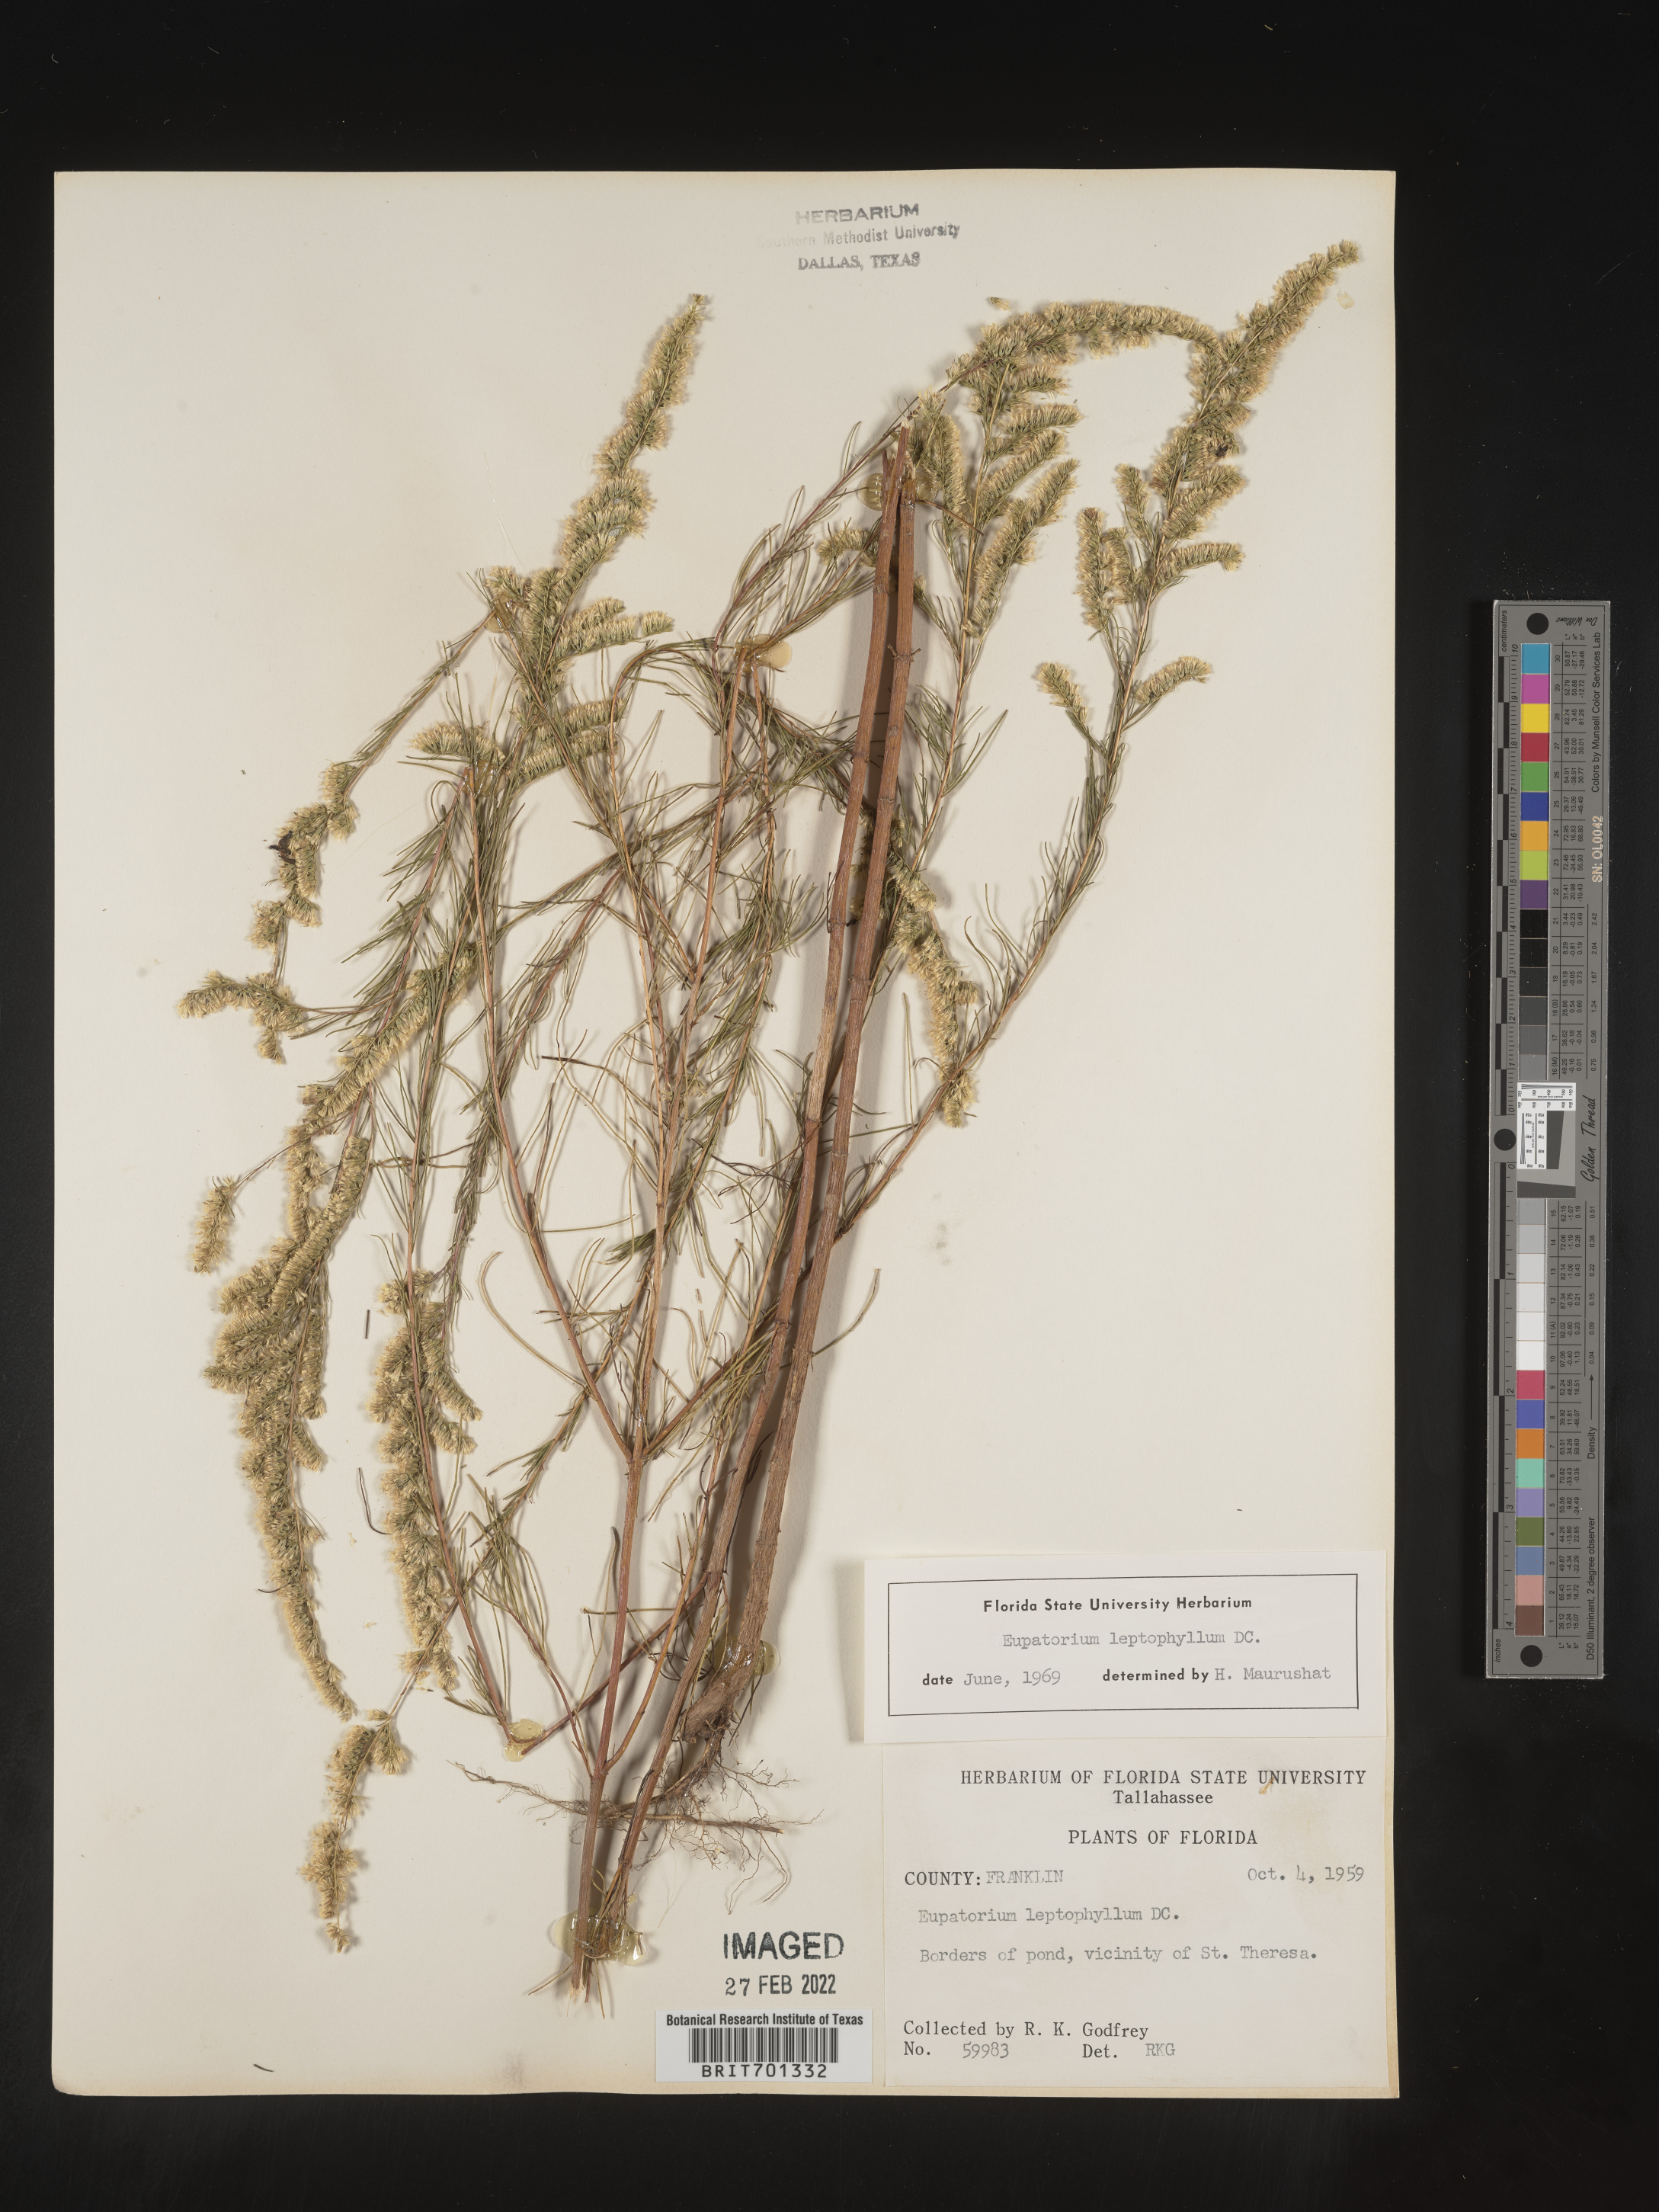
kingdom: Plantae
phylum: Tracheophyta
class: Magnoliopsida
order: Asterales
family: Asteraceae
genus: Eupatorium
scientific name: Eupatorium leptophyllum
